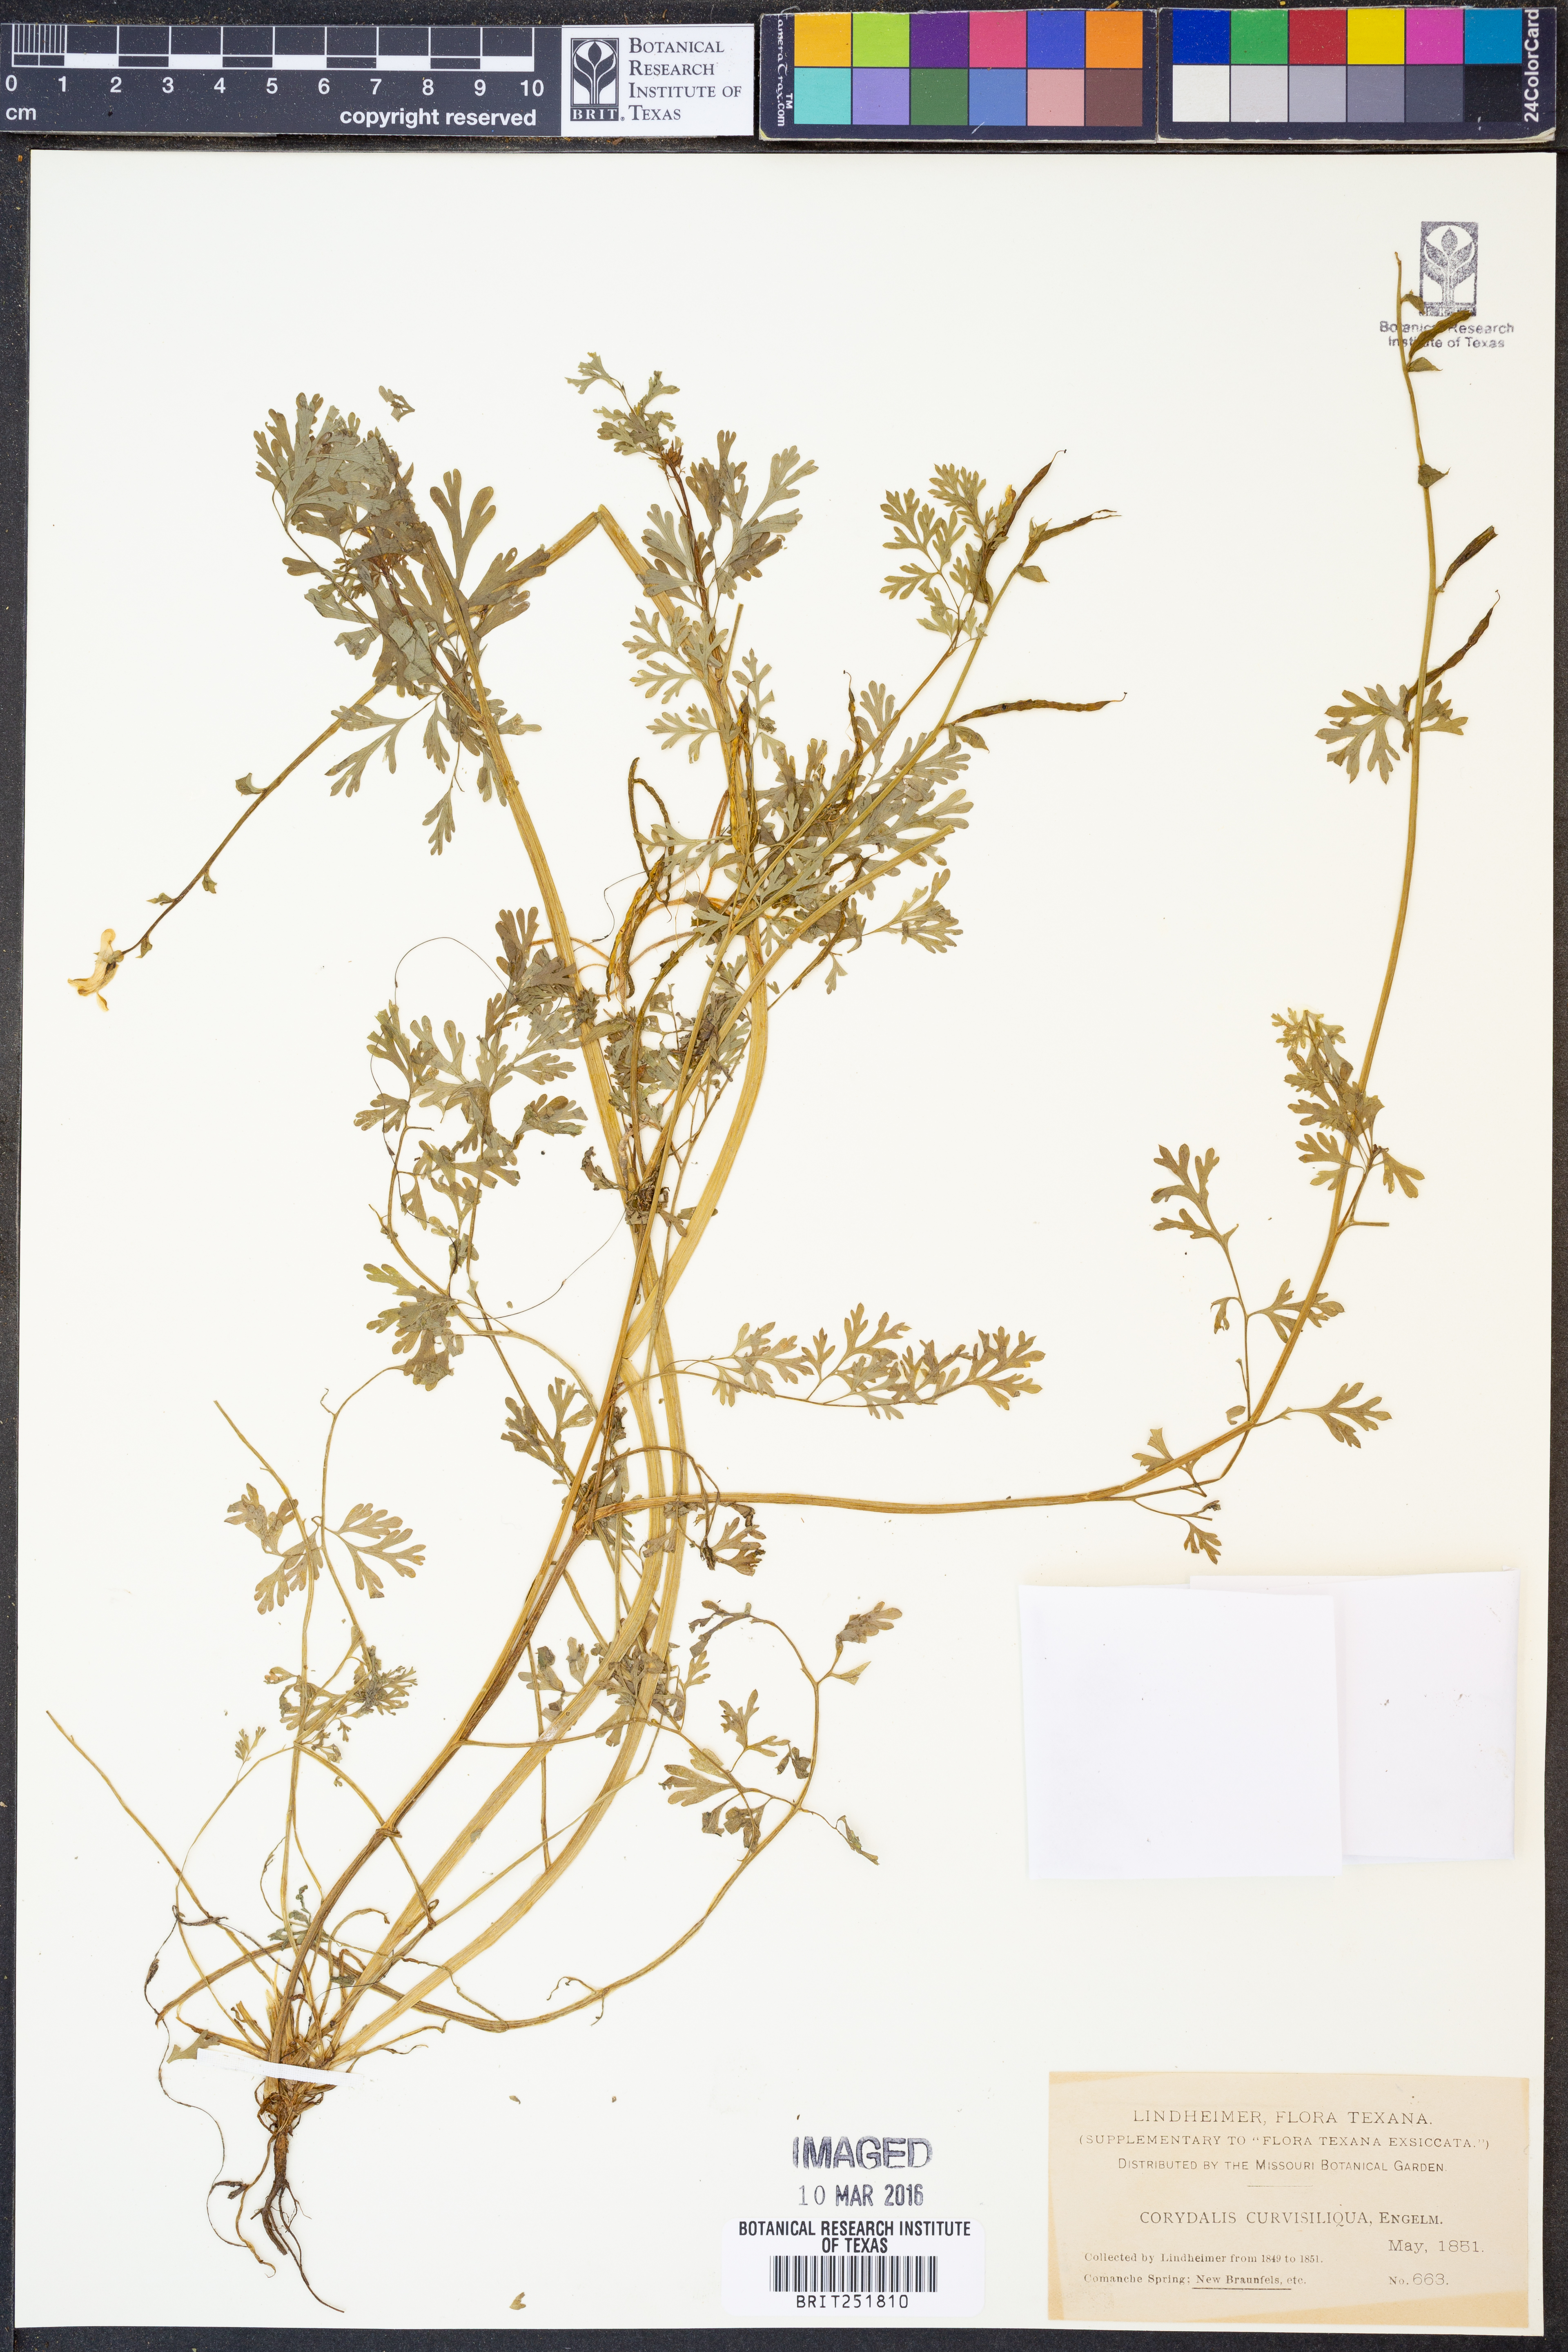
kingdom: Plantae
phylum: Tracheophyta
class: Magnoliopsida
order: Ranunculales
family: Papaveraceae
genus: Corydalis
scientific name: Corydalis curvisiliqua
